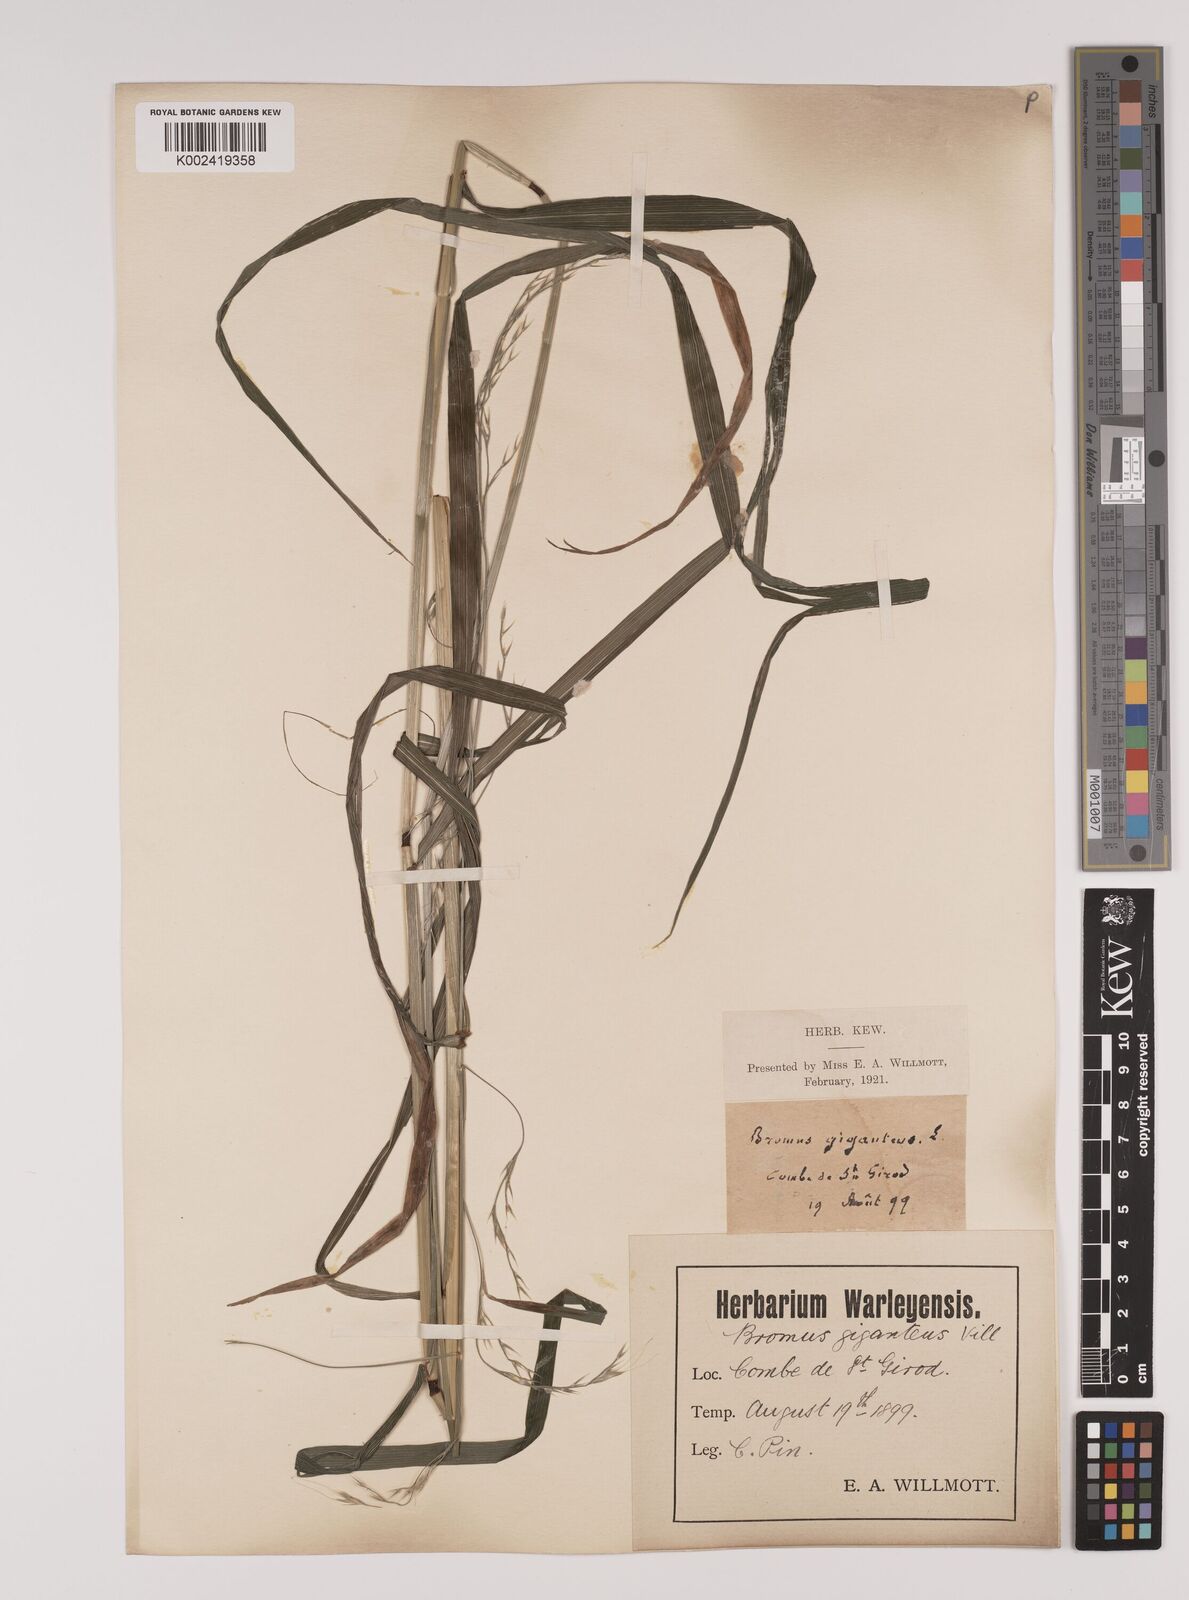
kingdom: Plantae
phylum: Tracheophyta
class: Liliopsida
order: Poales
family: Poaceae
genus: Lolium
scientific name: Lolium giganteum
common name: Giant fescue
